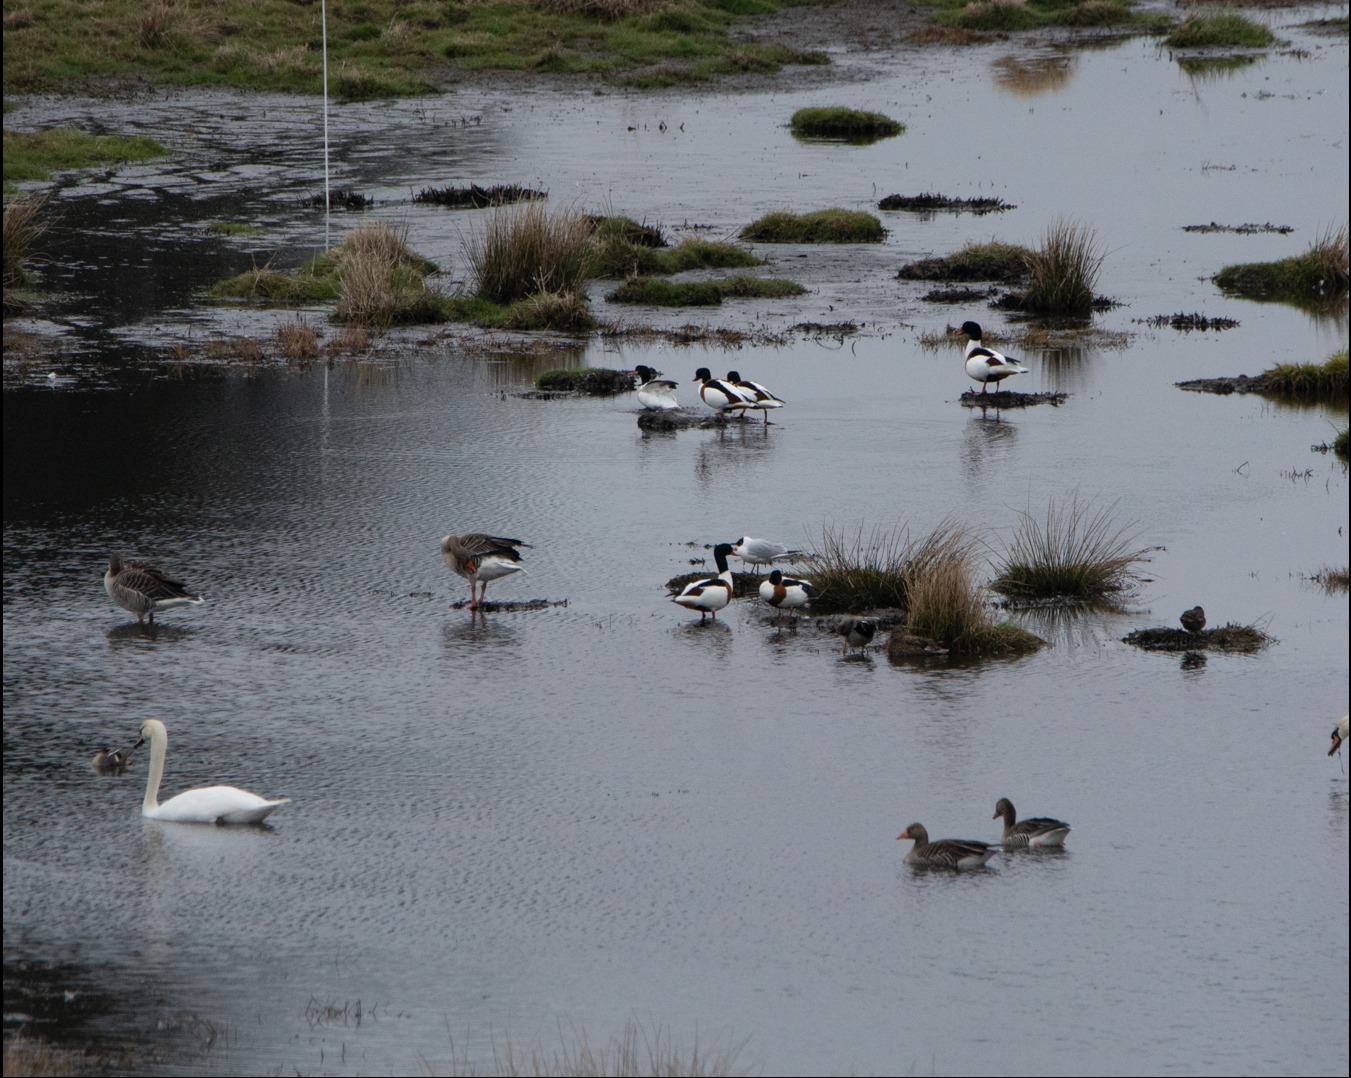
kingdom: Animalia
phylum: Chordata
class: Aves
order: Anseriformes
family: Anatidae
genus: Tadorna
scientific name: Tadorna tadorna
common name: Gravand
